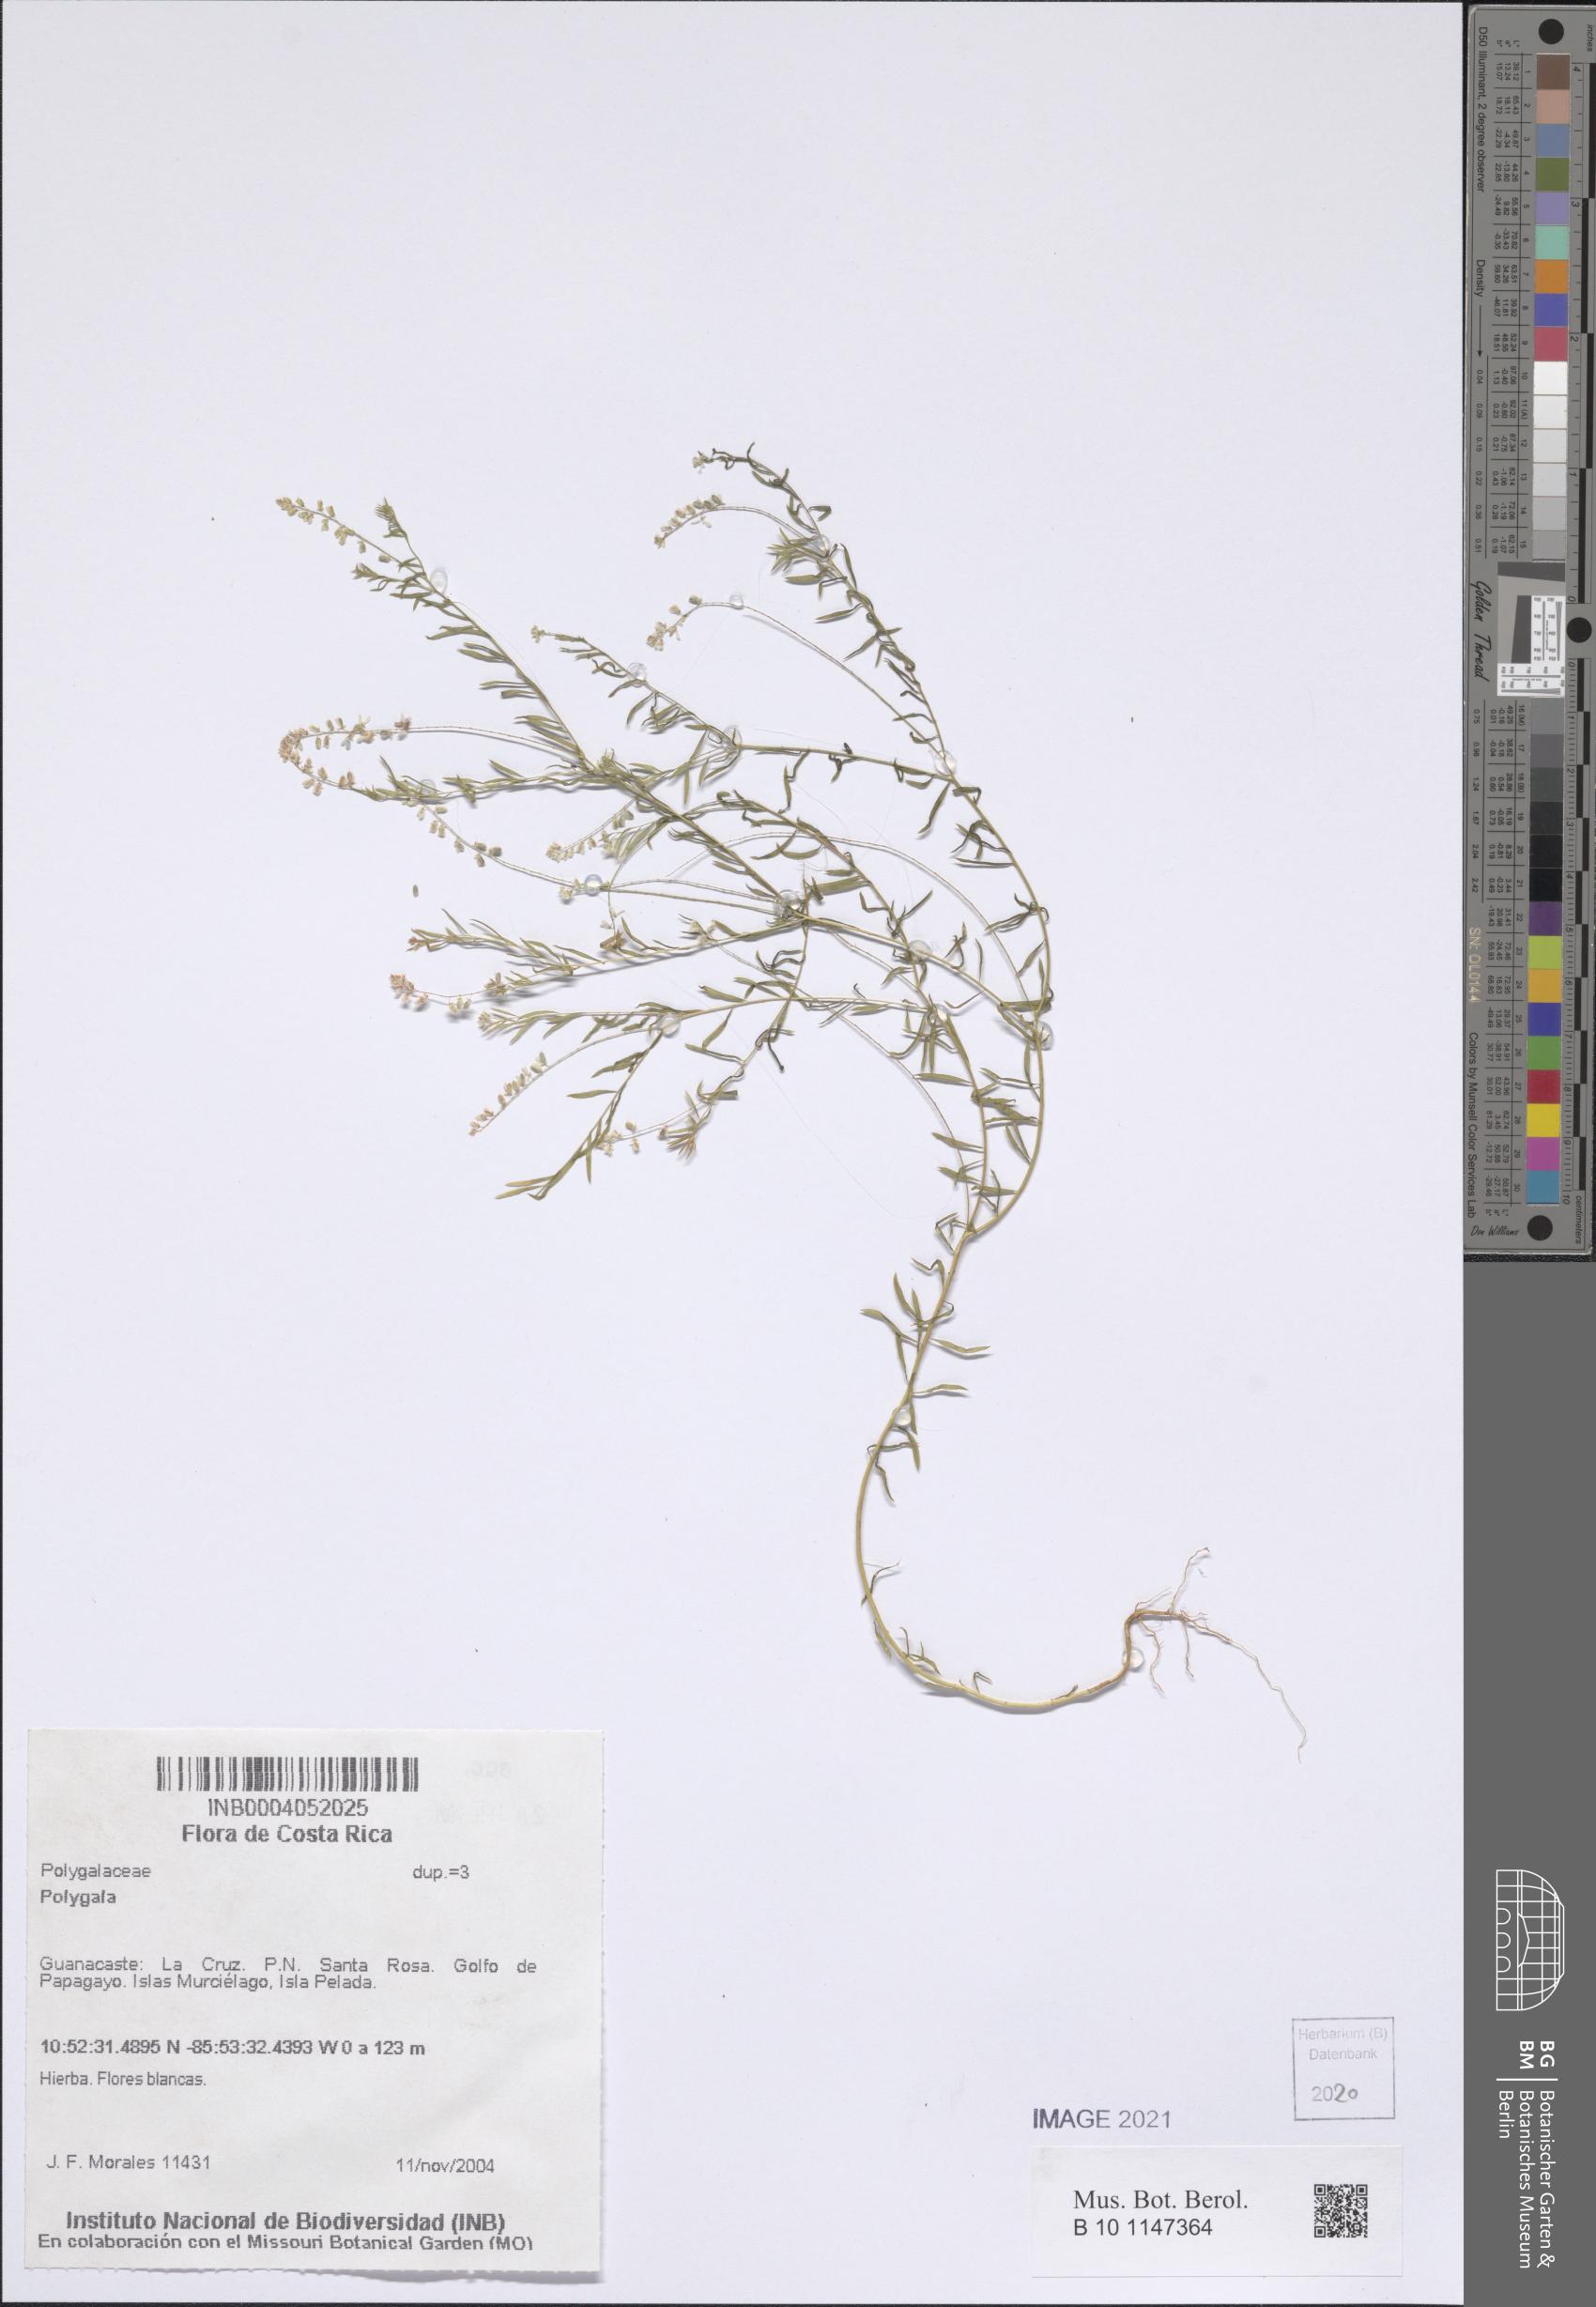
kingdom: Plantae
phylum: Tracheophyta
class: Magnoliopsida
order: Fabales
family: Polygalaceae
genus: Polygala
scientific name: Polygala
